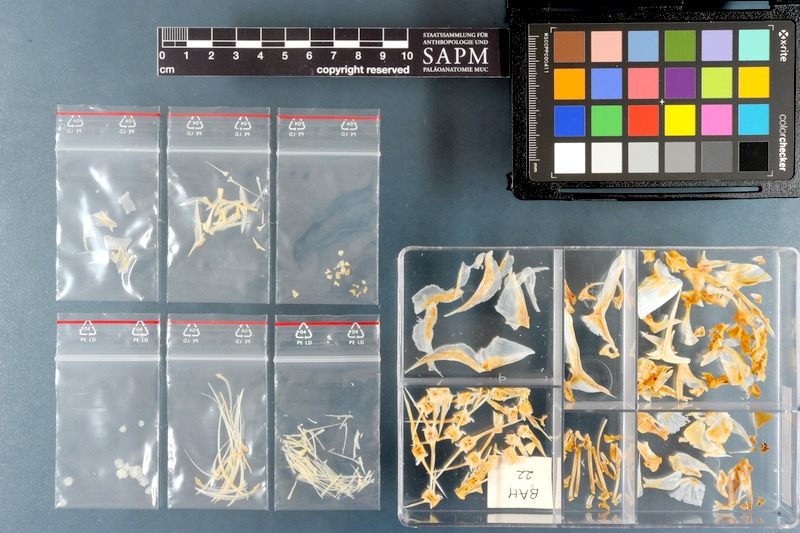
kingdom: Animalia
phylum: Chordata
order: Perciformes
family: Carangidae
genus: Gnathanodon
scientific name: Gnathanodon speciosus
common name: Golden toothless trevally
